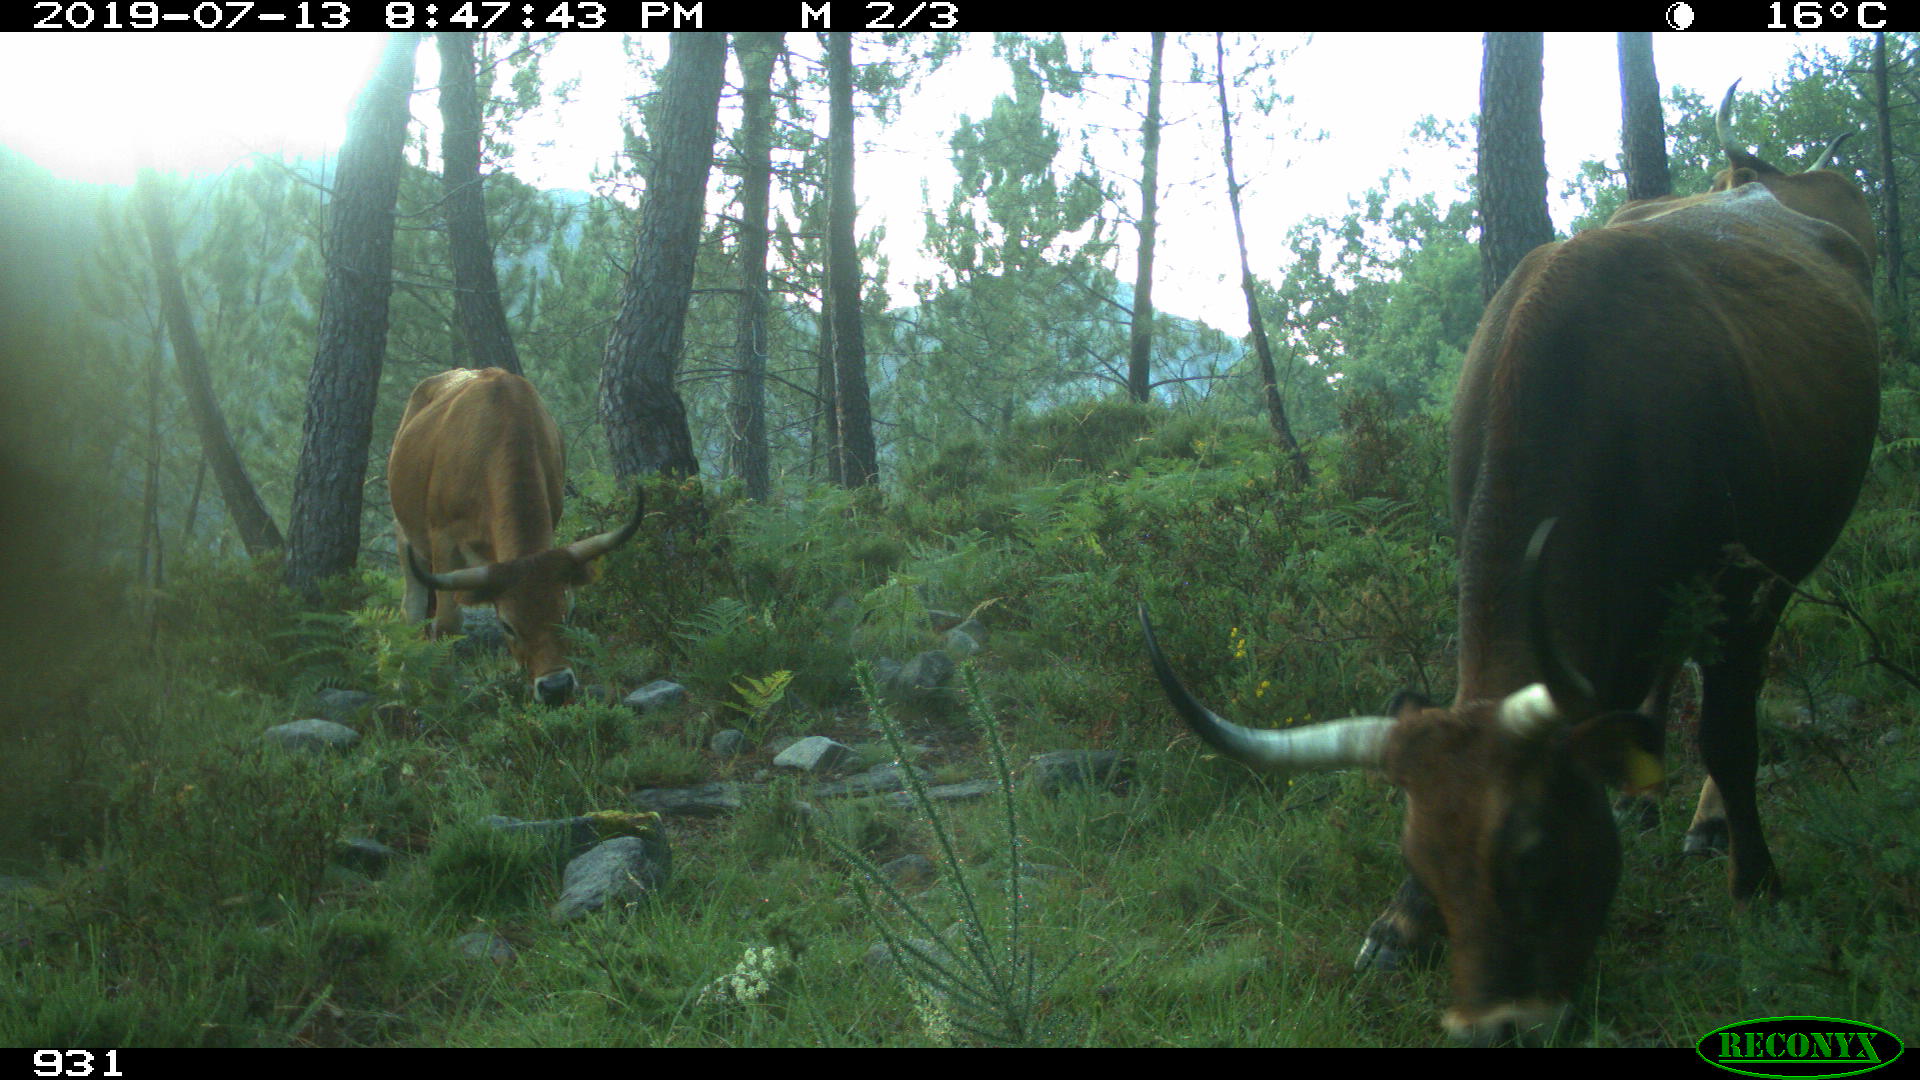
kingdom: Animalia
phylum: Chordata
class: Mammalia
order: Artiodactyla
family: Bovidae
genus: Bos
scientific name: Bos taurus
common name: Domesticated cattle
